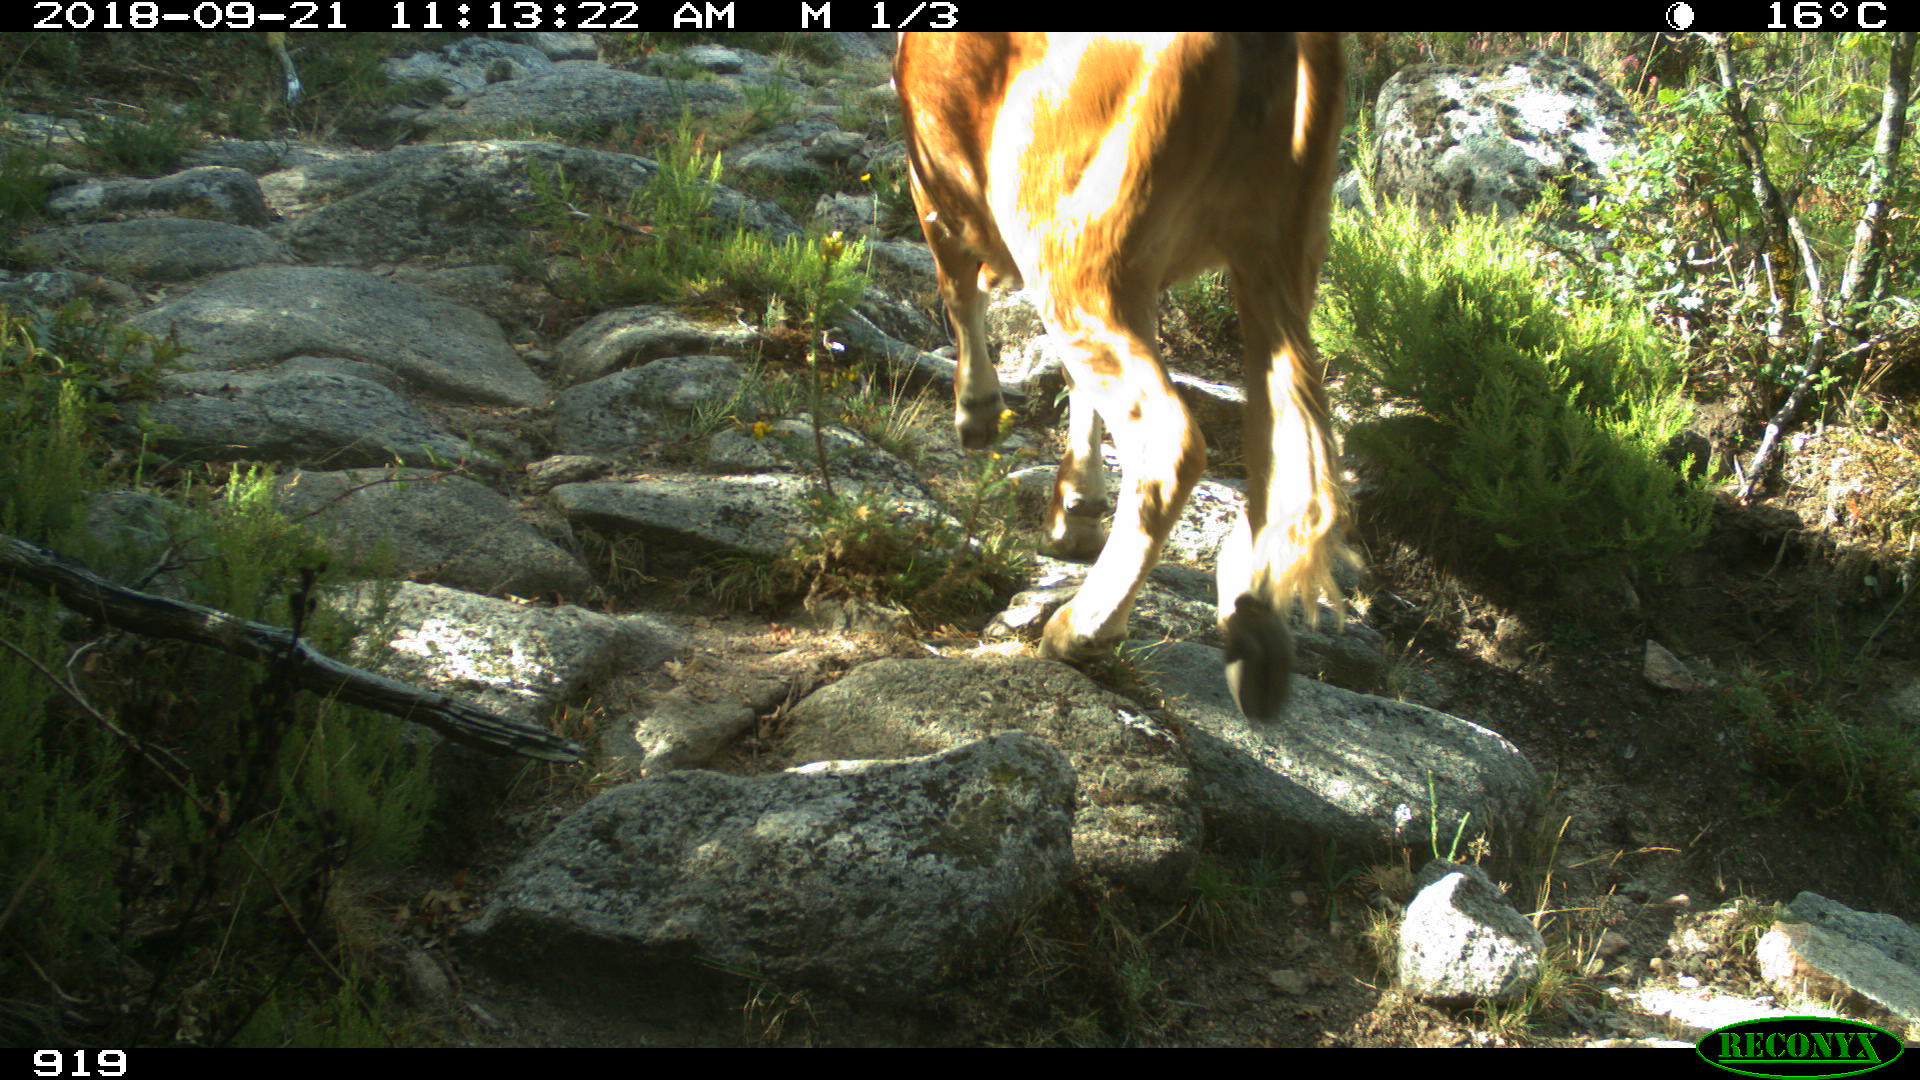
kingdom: Animalia
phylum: Chordata
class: Mammalia
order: Artiodactyla
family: Bovidae
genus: Bos
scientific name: Bos taurus
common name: Domesticated cattle
